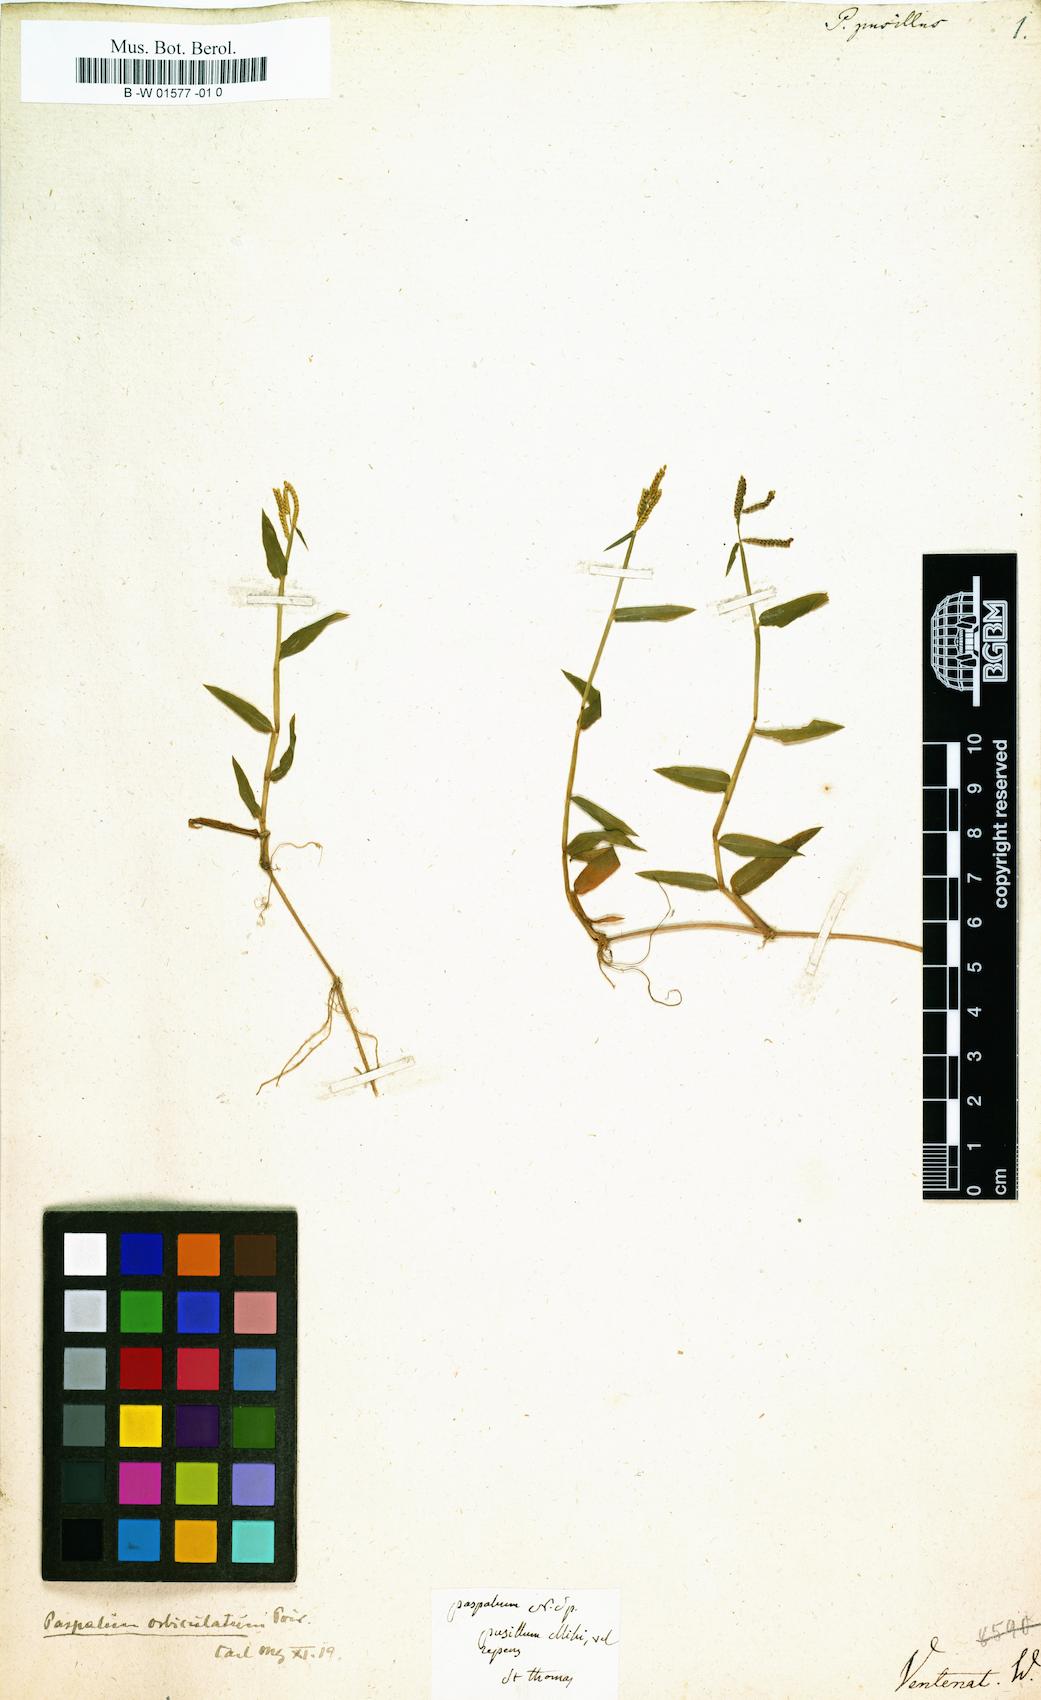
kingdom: Plantae
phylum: Tracheophyta
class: Liliopsida
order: Poales
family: Poaceae
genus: Paspalus
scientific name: Paspalus
